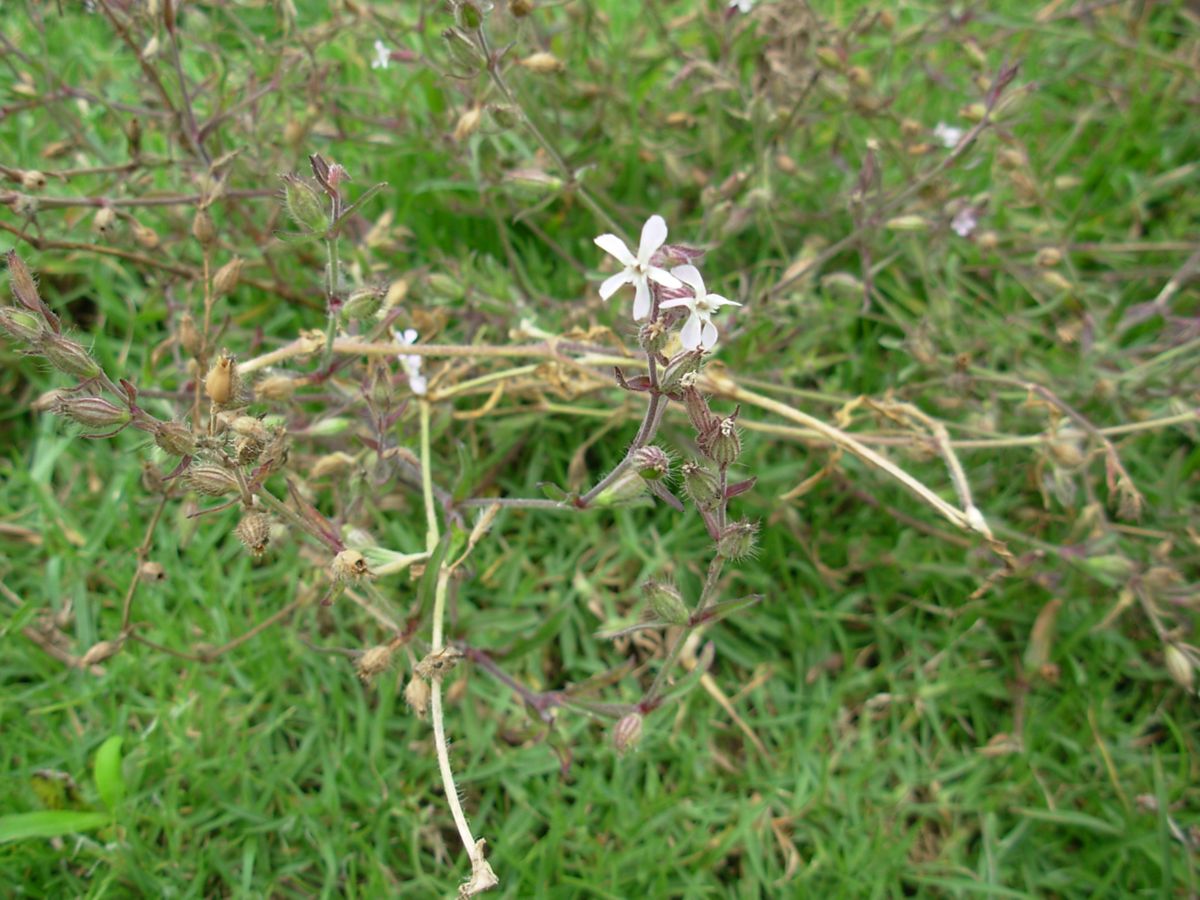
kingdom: Plantae
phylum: Tracheophyta
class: Magnoliopsida
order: Caryophyllales
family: Caryophyllaceae
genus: Silene
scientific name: Silene gallica
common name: Small-flowered catchfly
